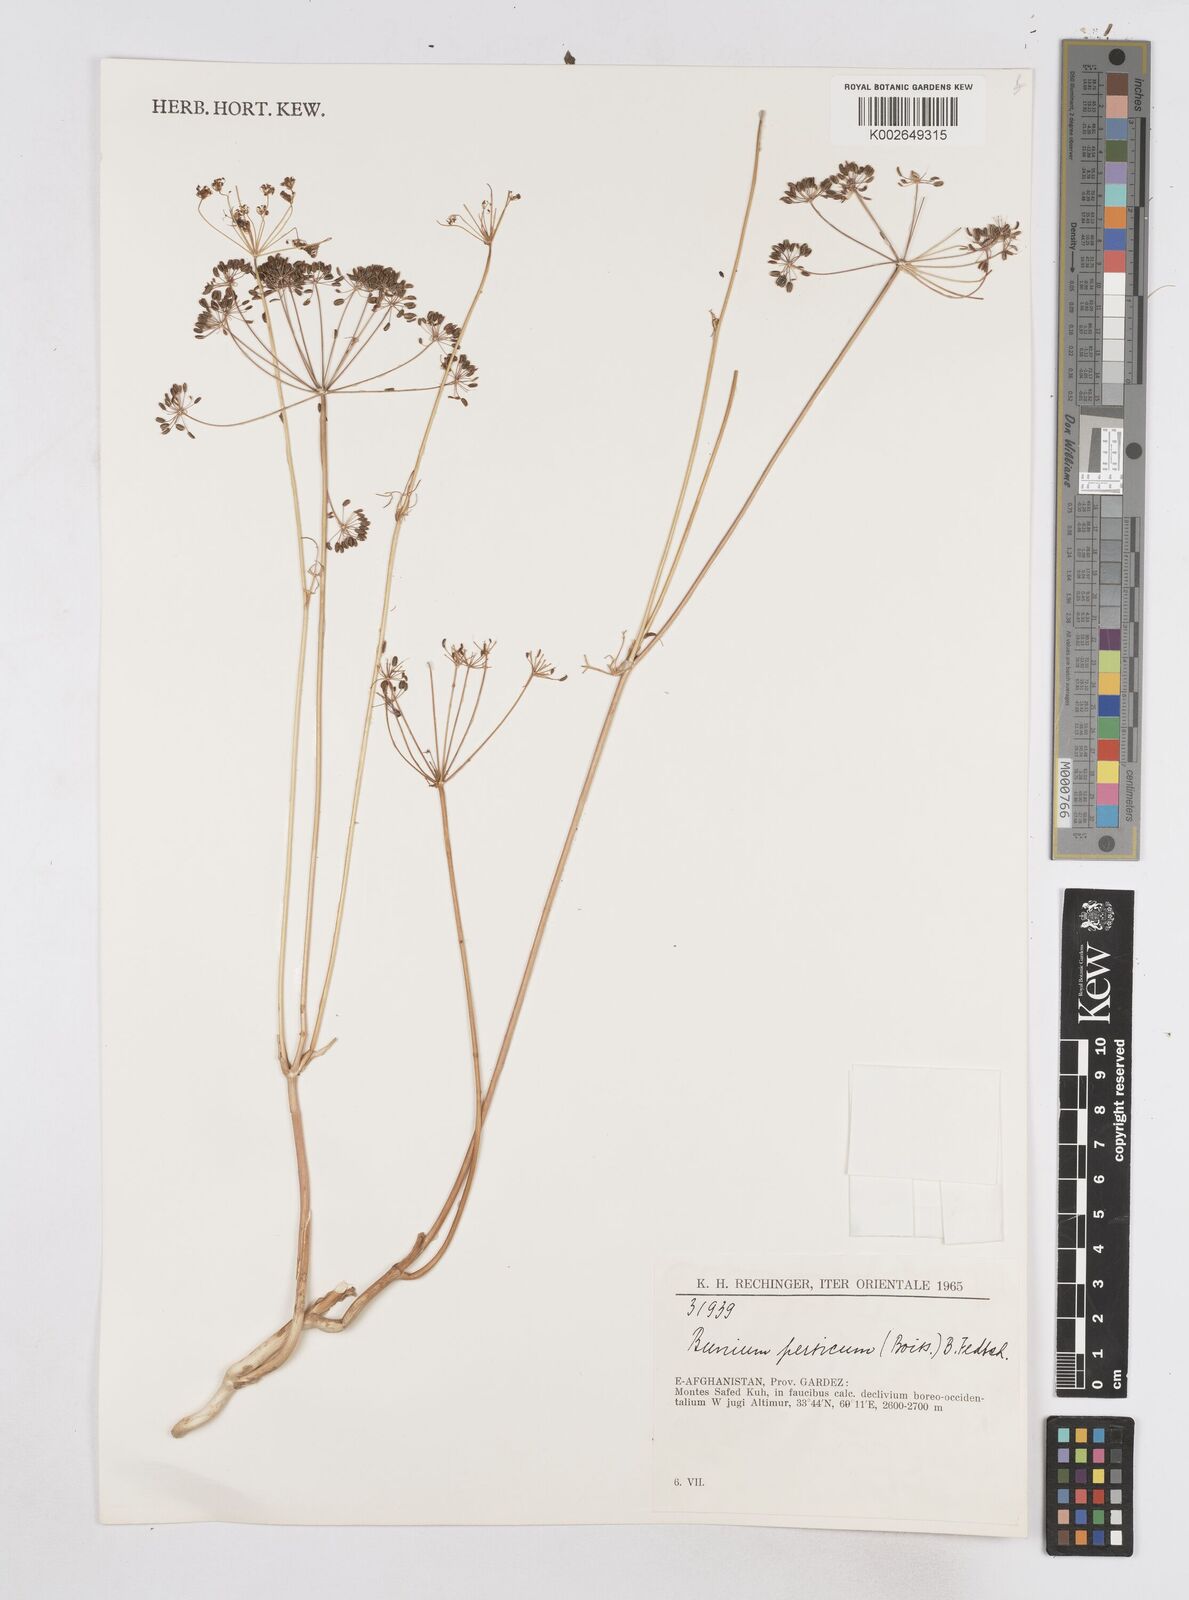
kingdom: Plantae
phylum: Tracheophyta
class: Magnoliopsida
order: Apiales
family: Apiaceae
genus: Elwendia
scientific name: Elwendia persica
